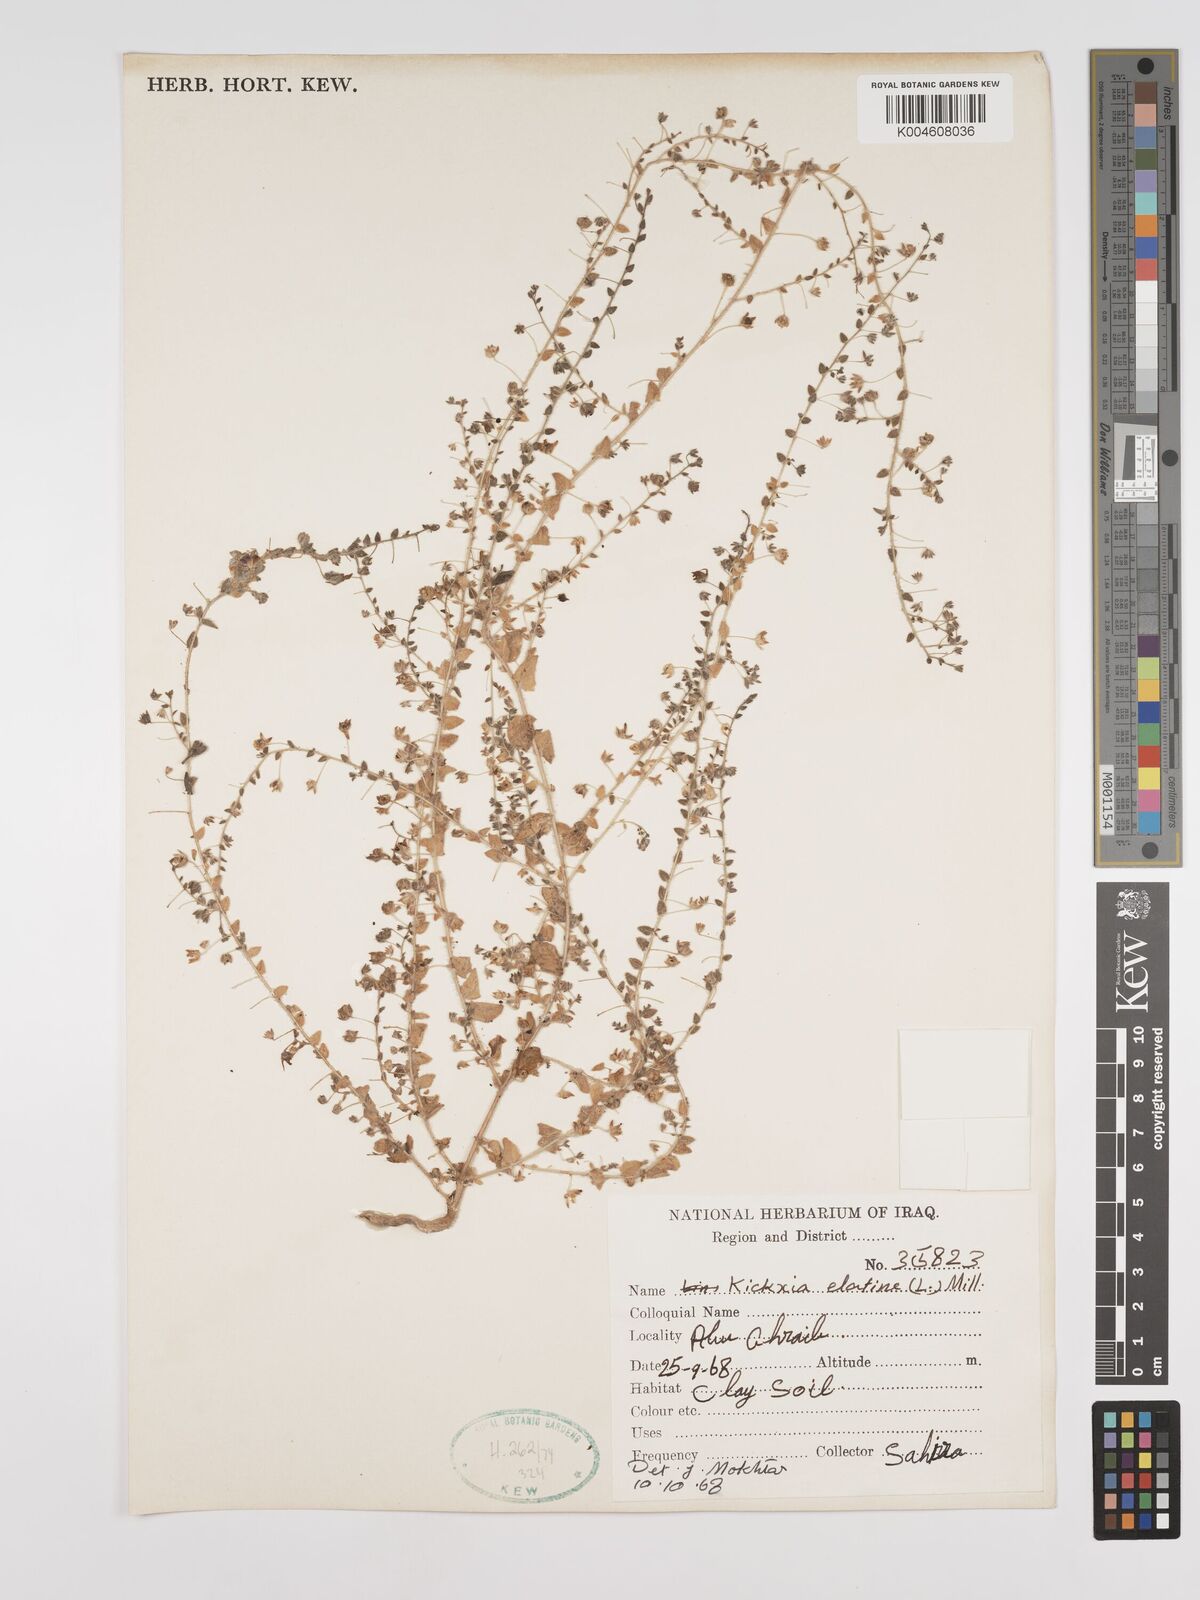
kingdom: Plantae
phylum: Tracheophyta
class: Magnoliopsida
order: Lamiales
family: Plantaginaceae
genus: Kickxia
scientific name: Kickxia elatine
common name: Sharp-leaved fluellen
